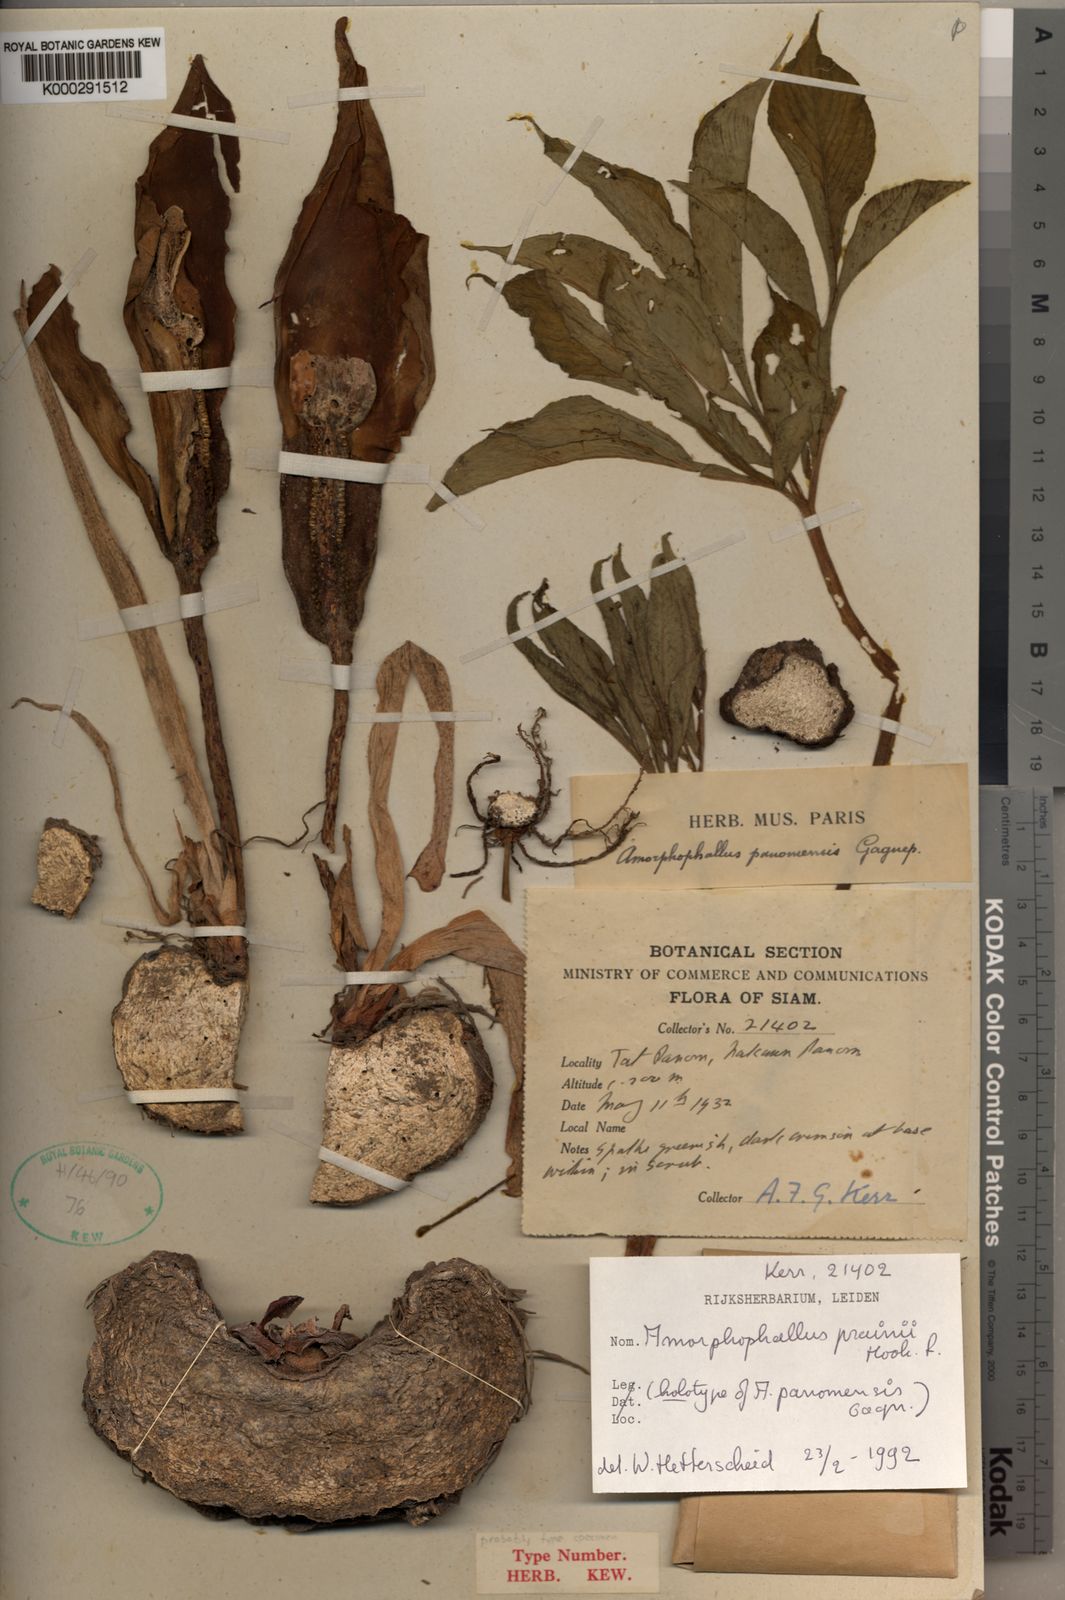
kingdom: Plantae
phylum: Tracheophyta
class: Liliopsida
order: Alismatales
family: Araceae
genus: Amorphophallus
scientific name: Amorphophallus prainii
